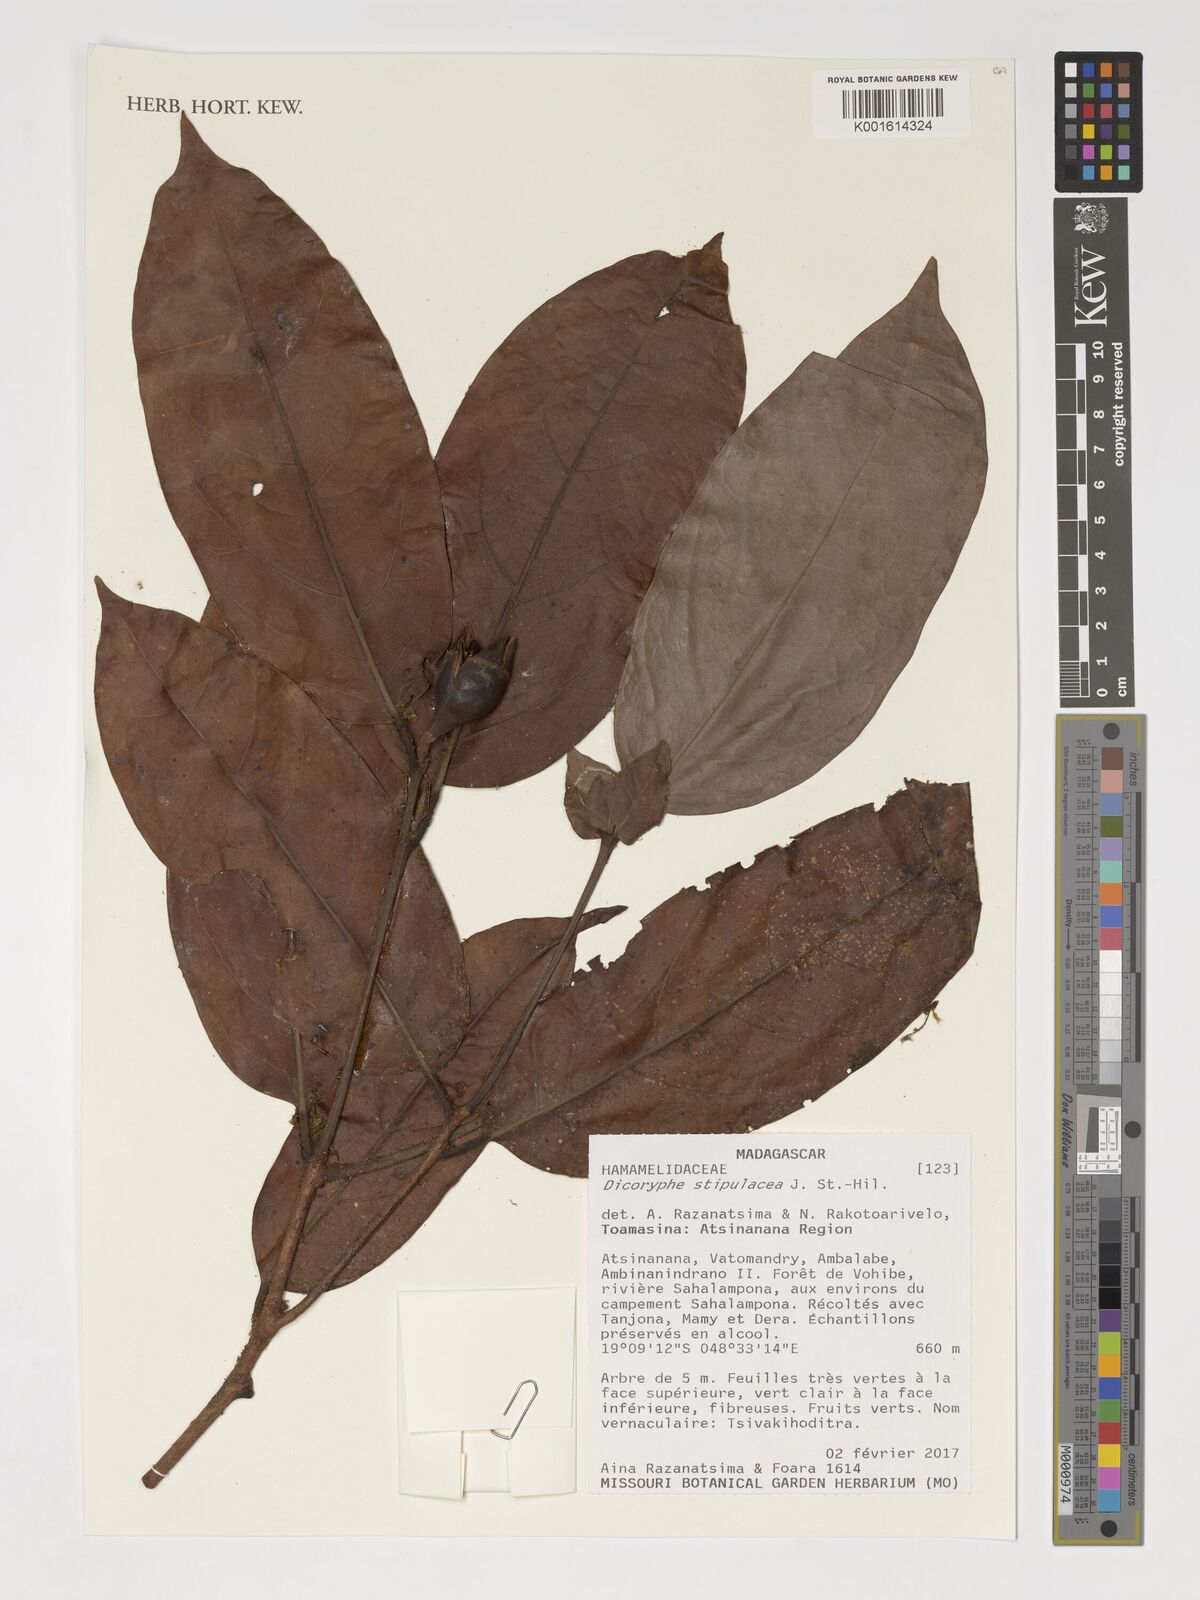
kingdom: Plantae
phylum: Tracheophyta
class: Magnoliopsida
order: Saxifragales
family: Hamamelidaceae
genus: Dicoryphe
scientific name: Dicoryphe stipulacea
